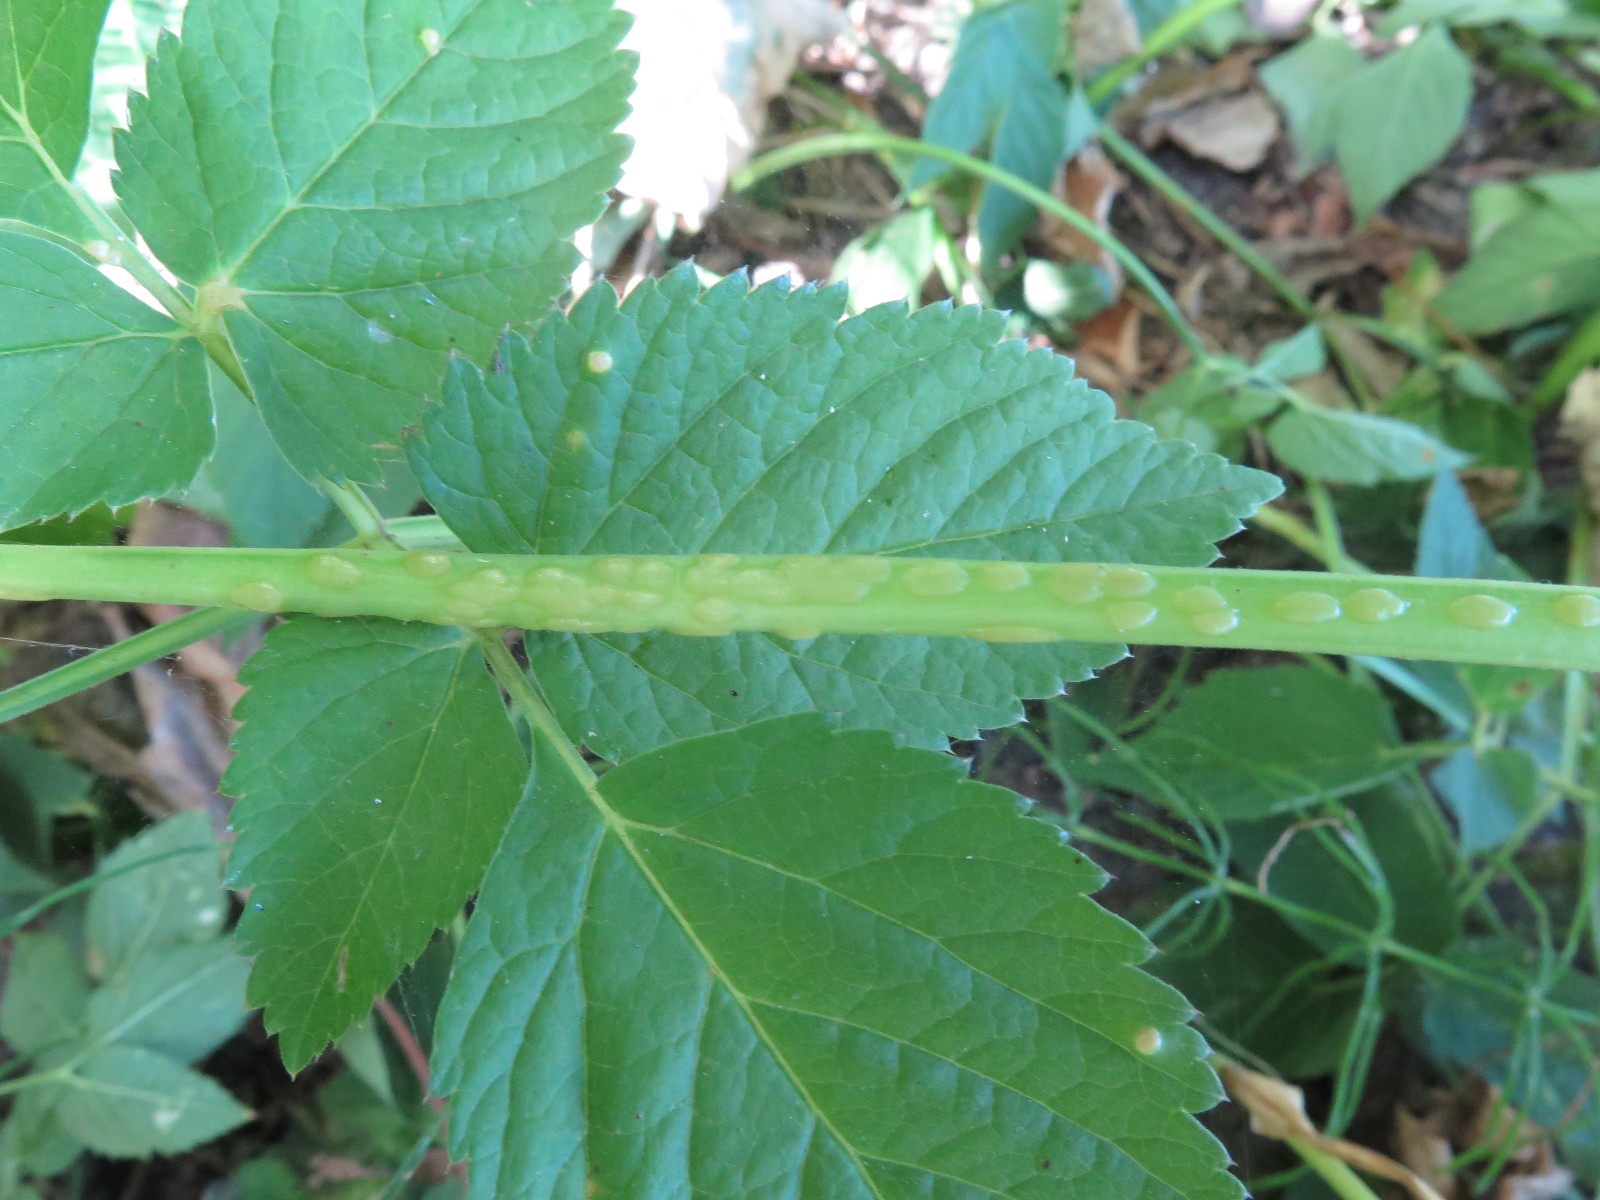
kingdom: Fungi
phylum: Ascomycota
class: Taphrinomycetes
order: Taphrinales
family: Taphrinaceae
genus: Protomyces
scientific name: Protomyces macrosporus
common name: skvalderkål-vablesæk
